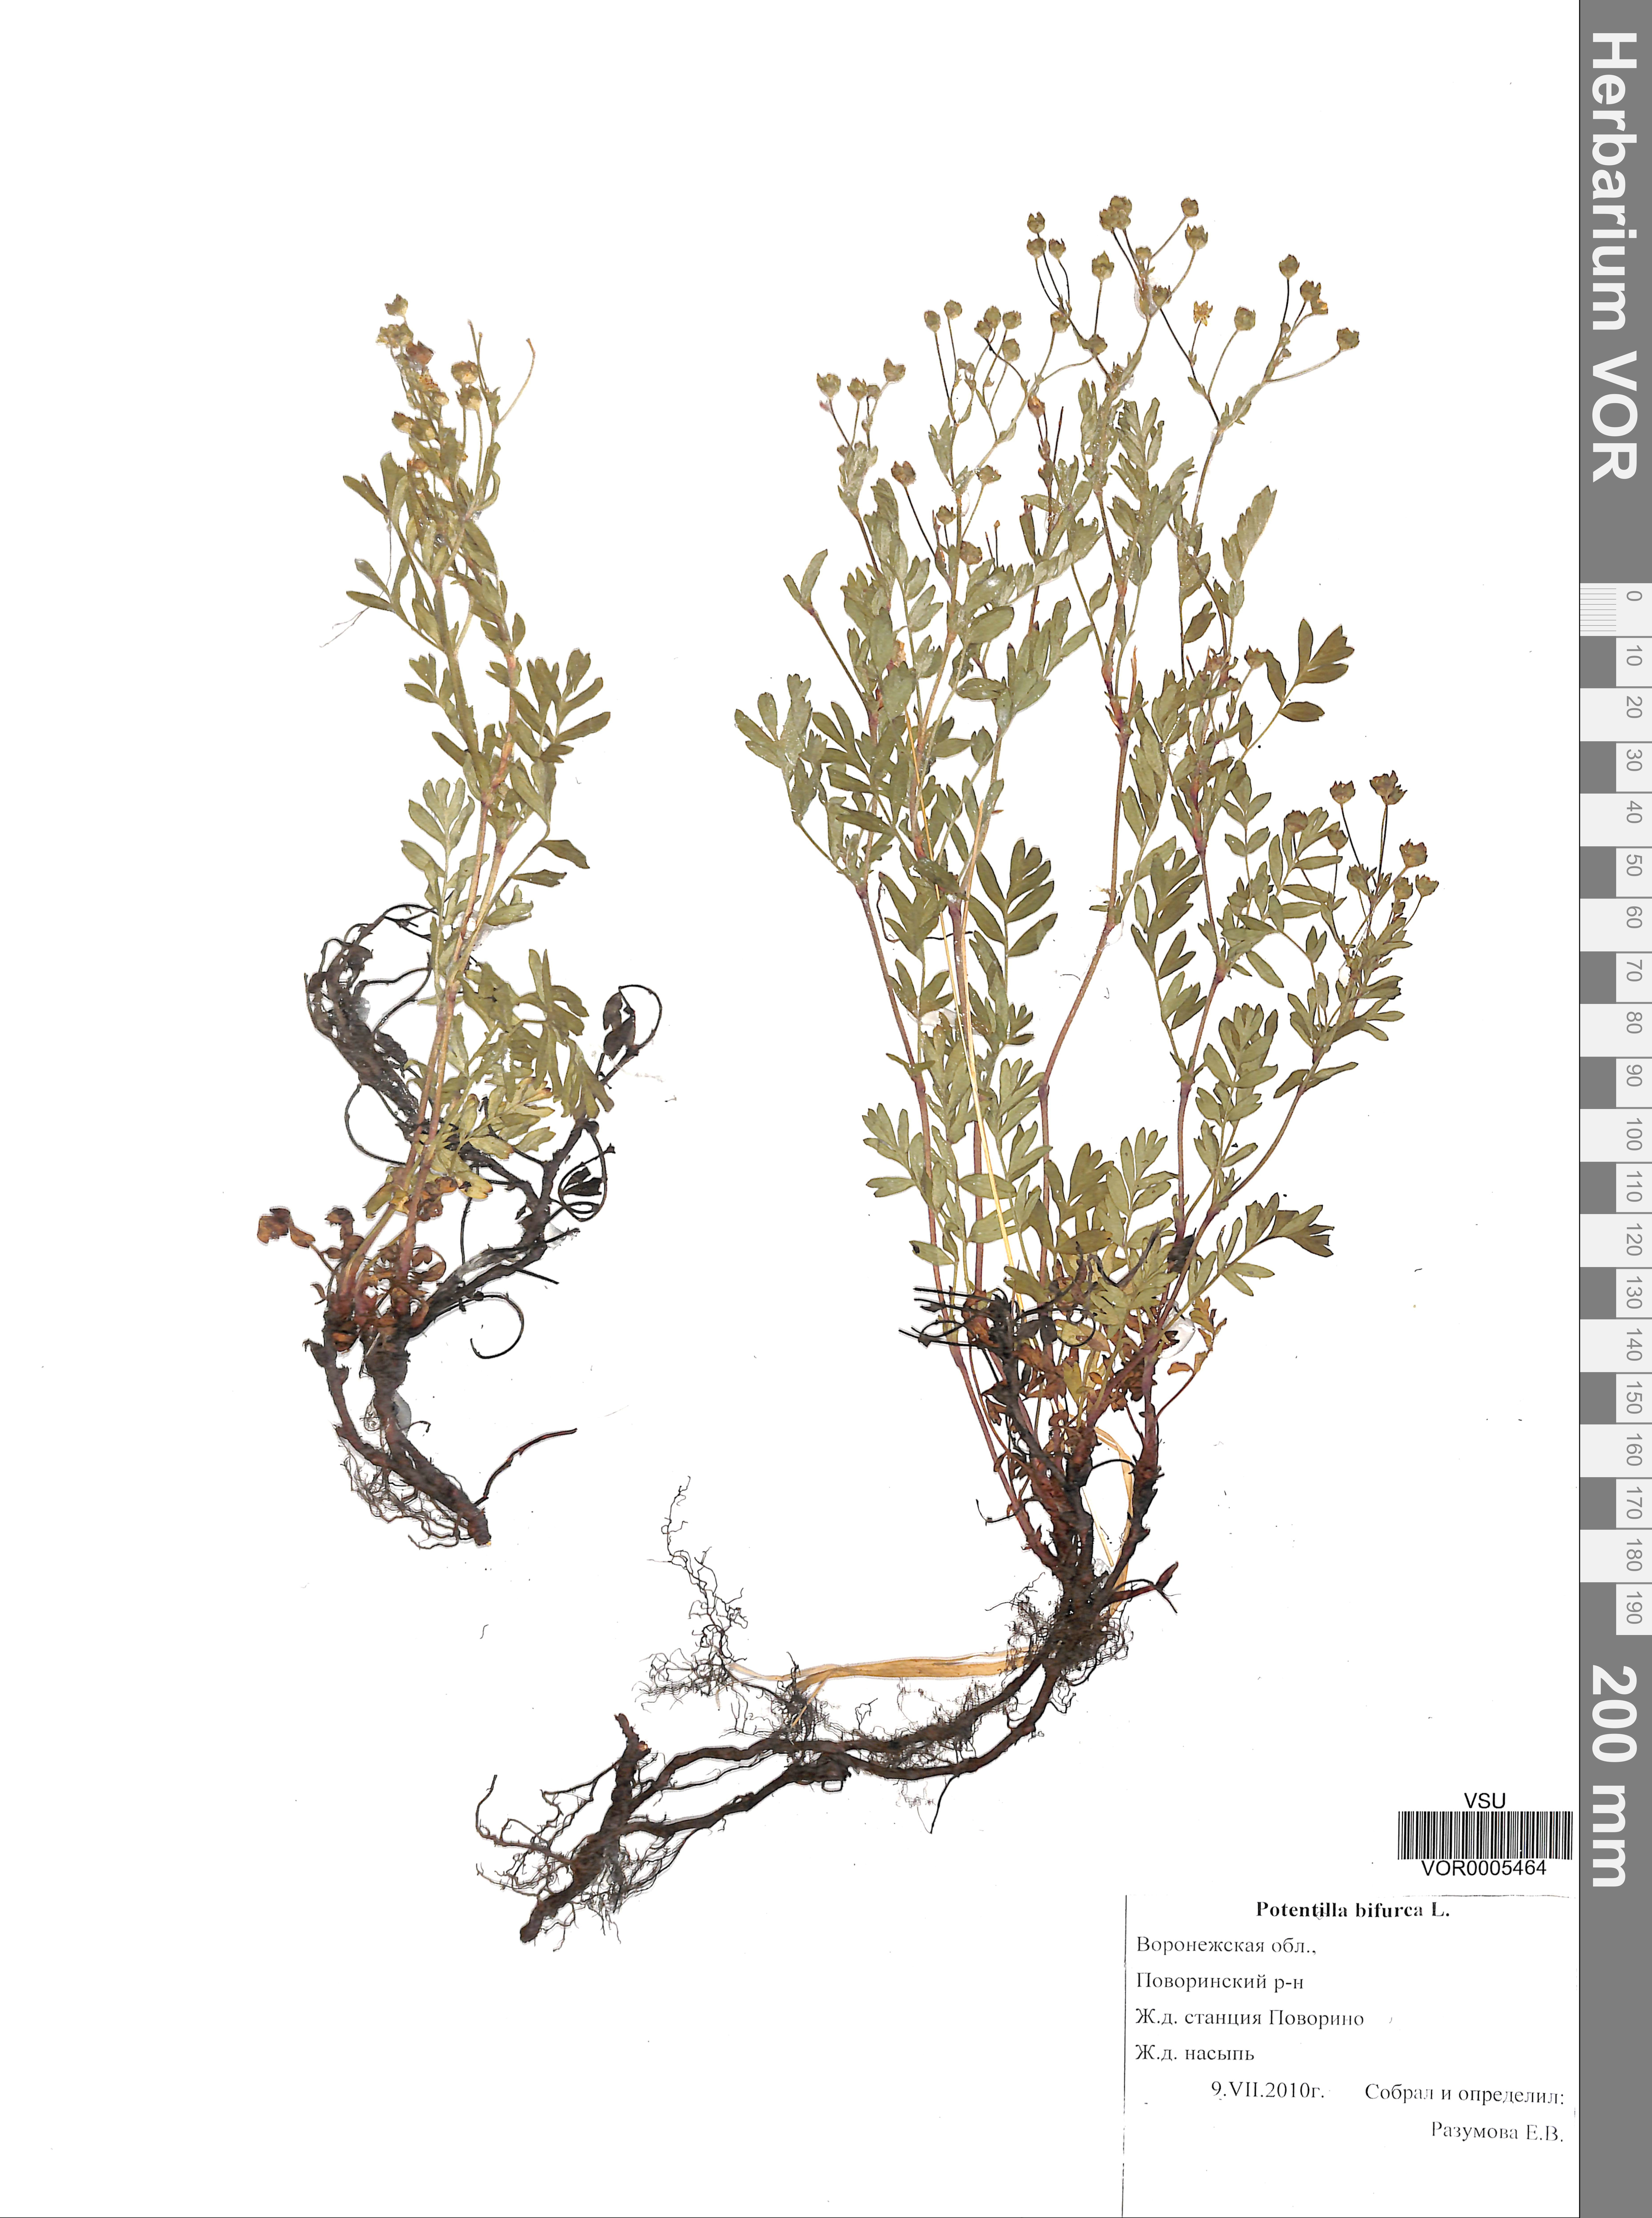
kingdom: Plantae
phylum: Tracheophyta
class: Magnoliopsida
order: Rosales
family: Rosaceae
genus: Sibbaldianthe
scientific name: Sibbaldianthe bifurca
